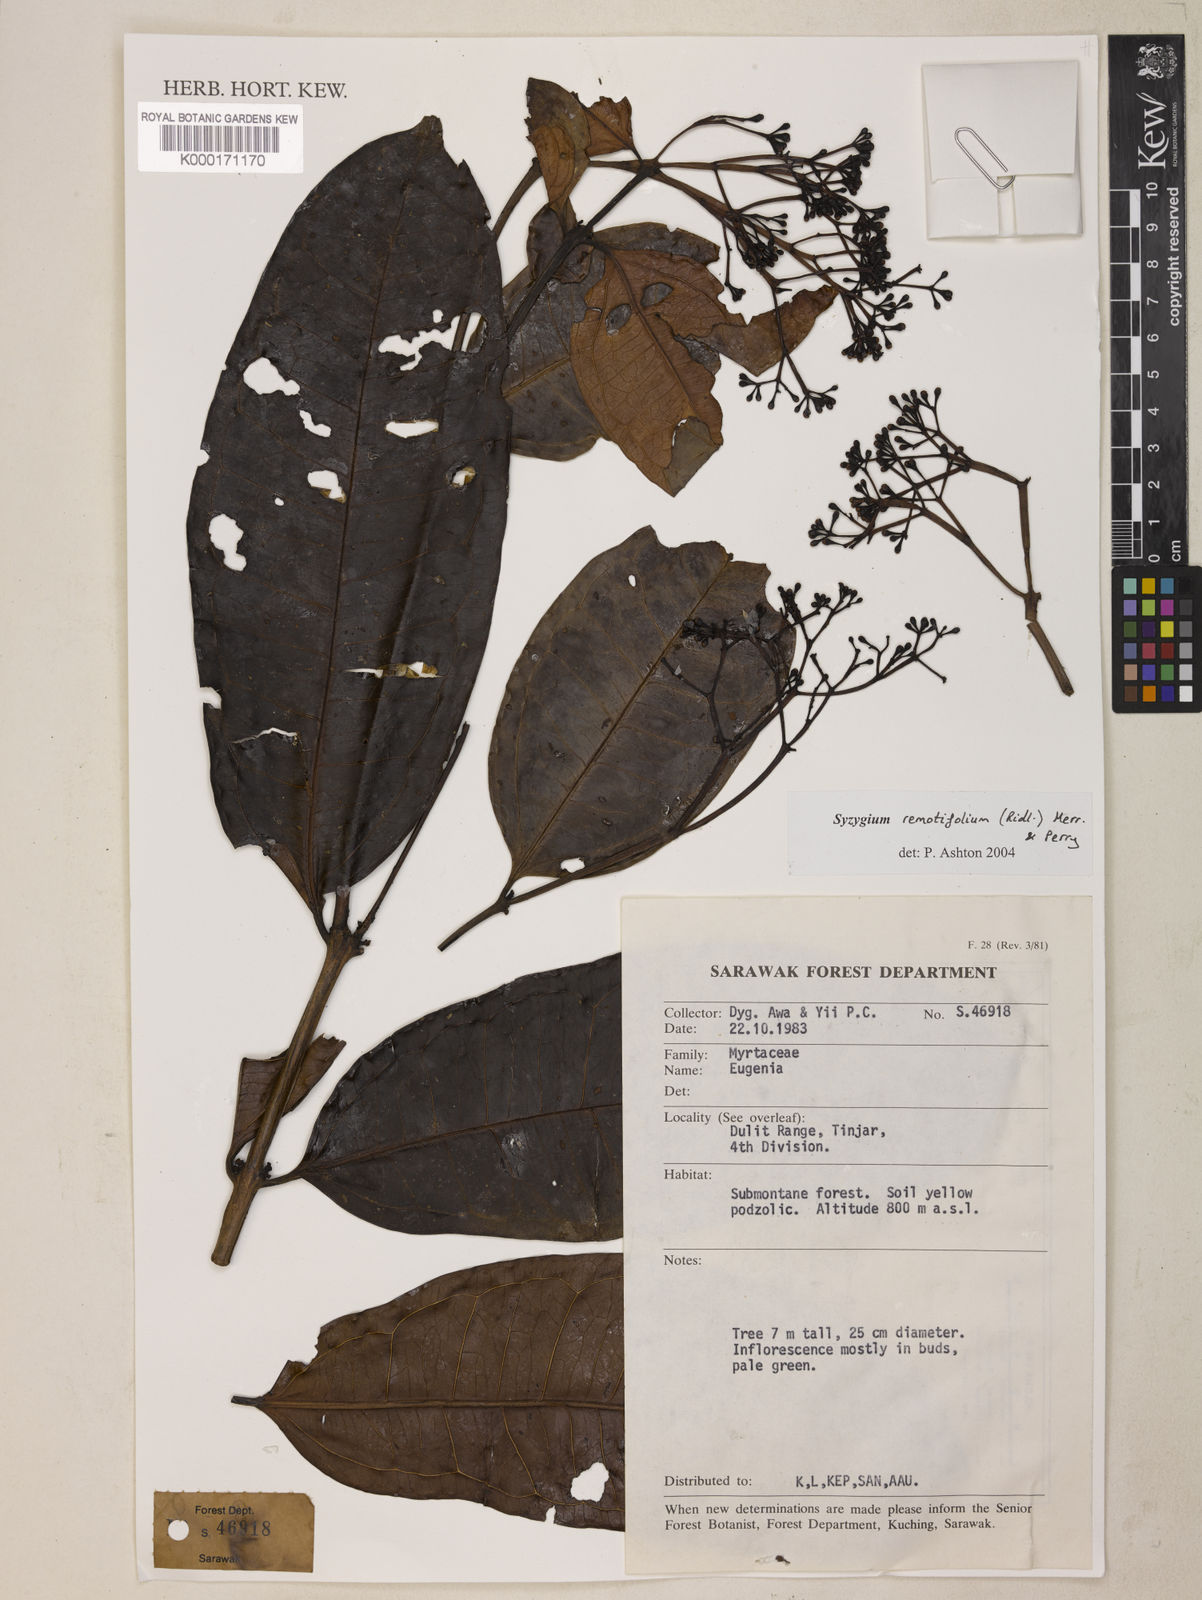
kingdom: Plantae
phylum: Tracheophyta
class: Magnoliopsida
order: Myrtales
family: Myrtaceae
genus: Syzygium
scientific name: Syzygium remotifolium
